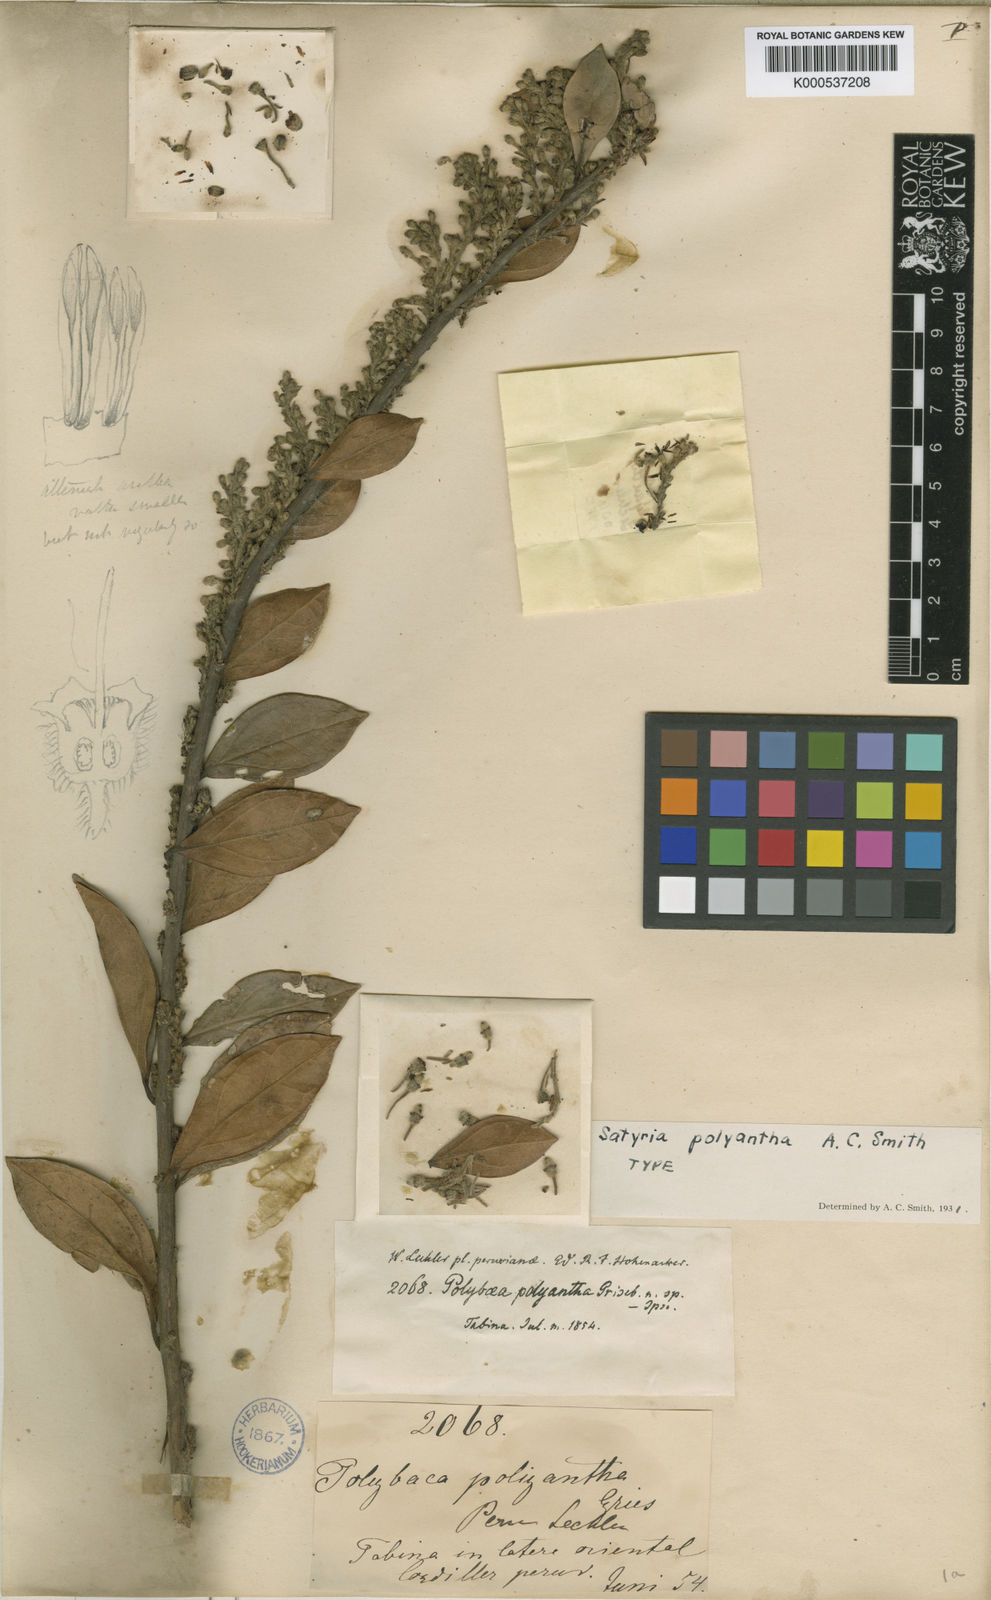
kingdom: Plantae
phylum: Tracheophyta
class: Magnoliopsida
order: Ericales
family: Ericaceae
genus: Satyria
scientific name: Satyria polyantha
